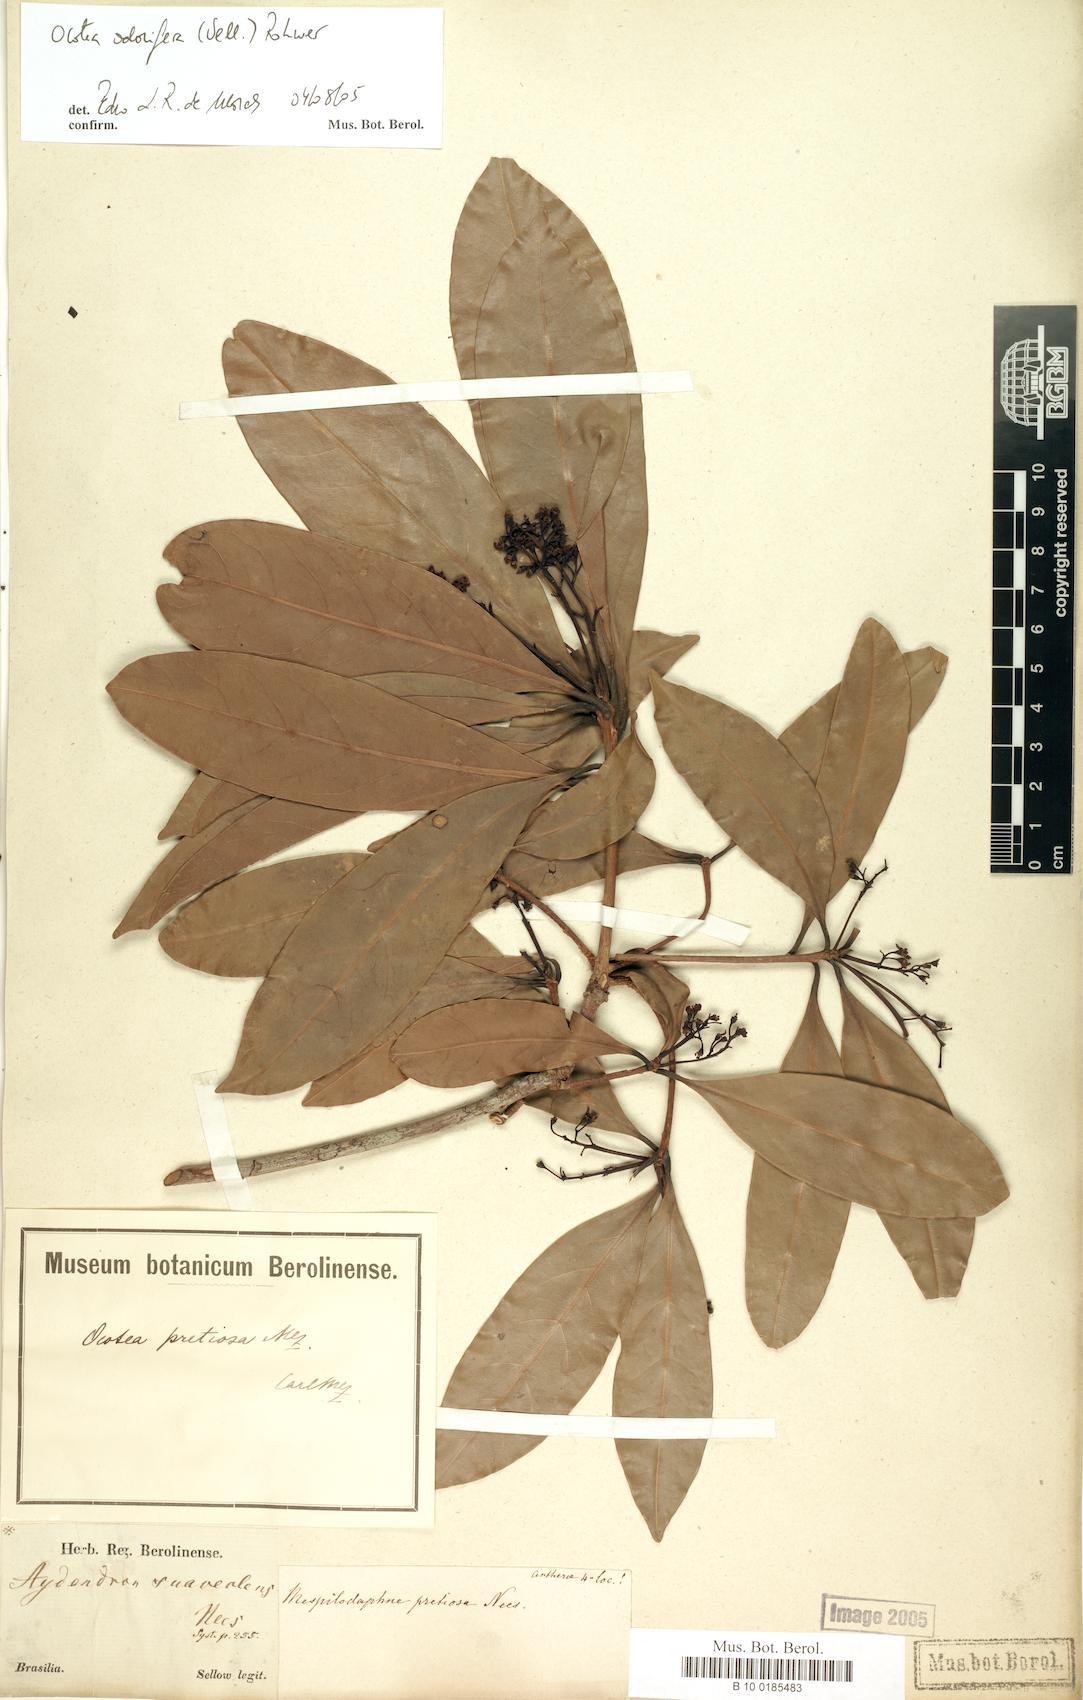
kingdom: Plantae
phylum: Tracheophyta
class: Magnoliopsida
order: Laurales
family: Lauraceae
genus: Mespilodaphne
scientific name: Mespilodaphne quixos
